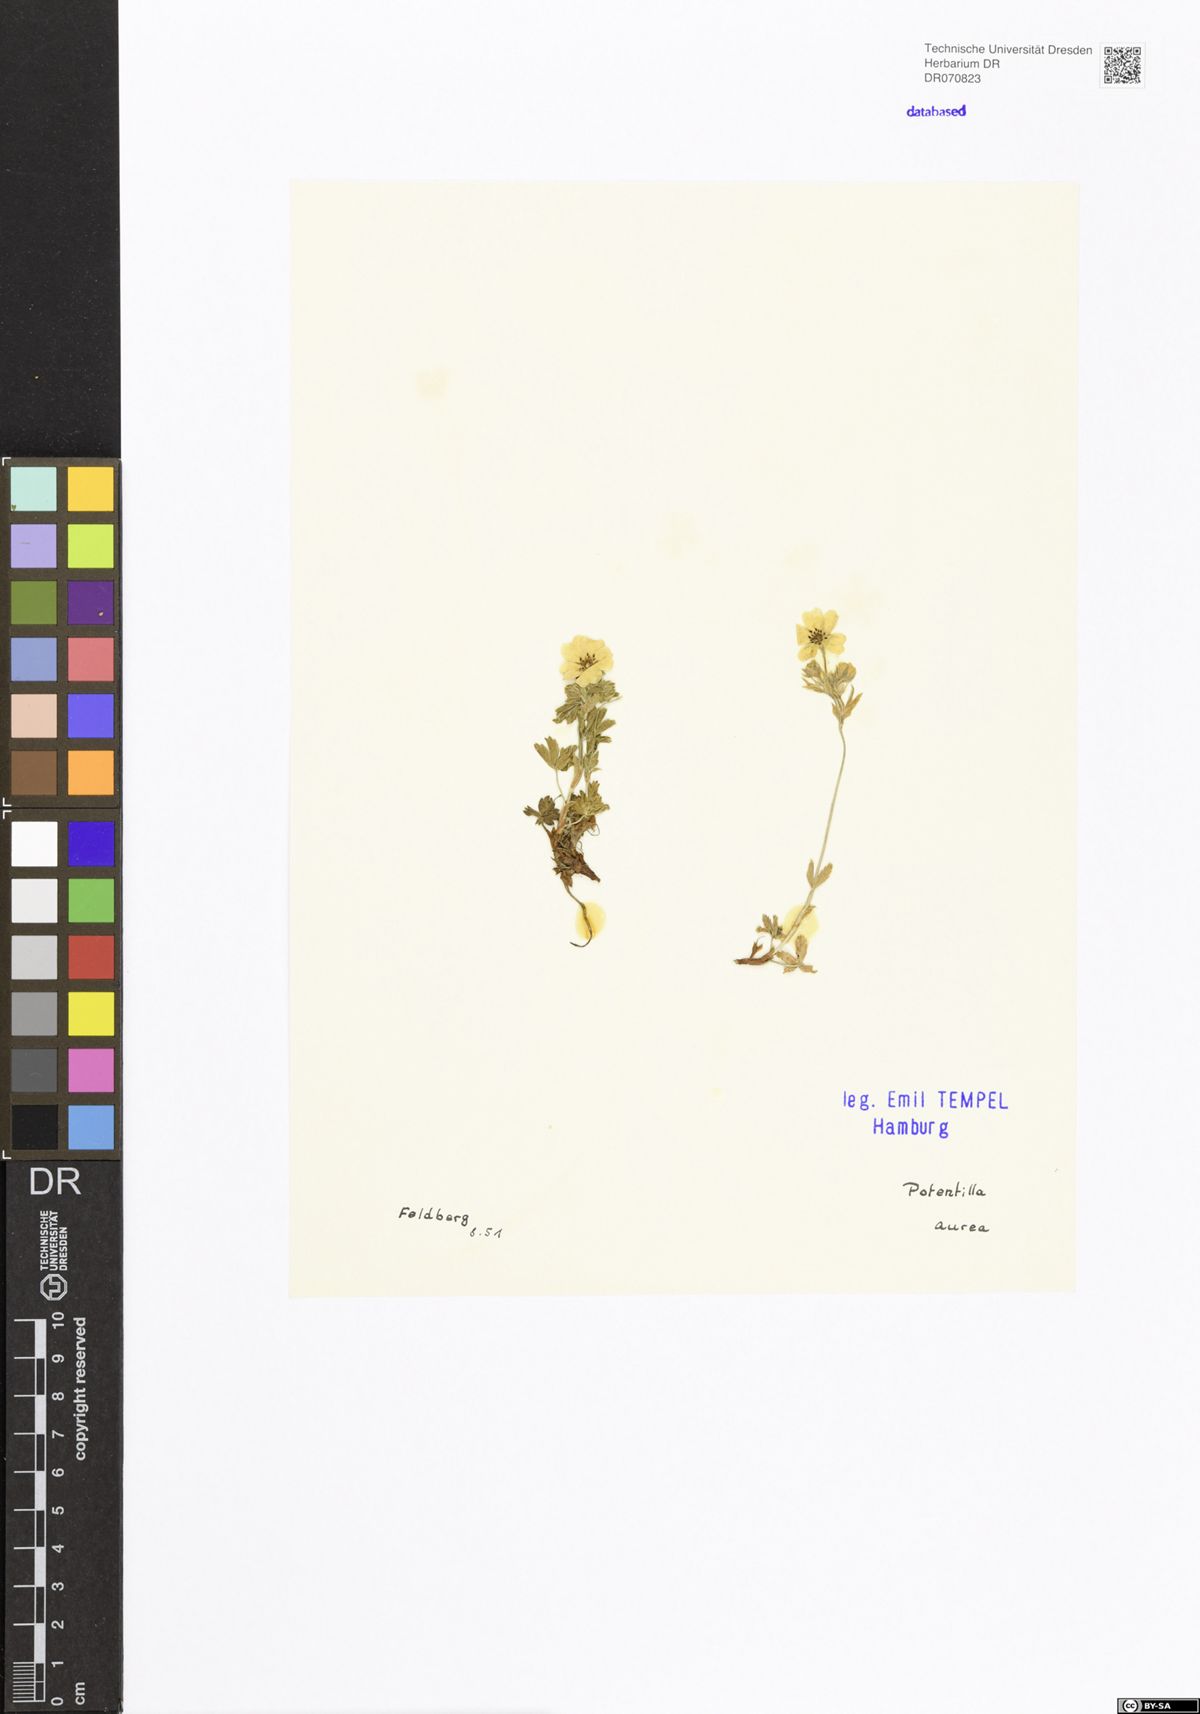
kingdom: Plantae
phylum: Tracheophyta
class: Magnoliopsida
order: Rosales
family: Rosaceae
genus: Potentilla
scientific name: Potentilla aurea
